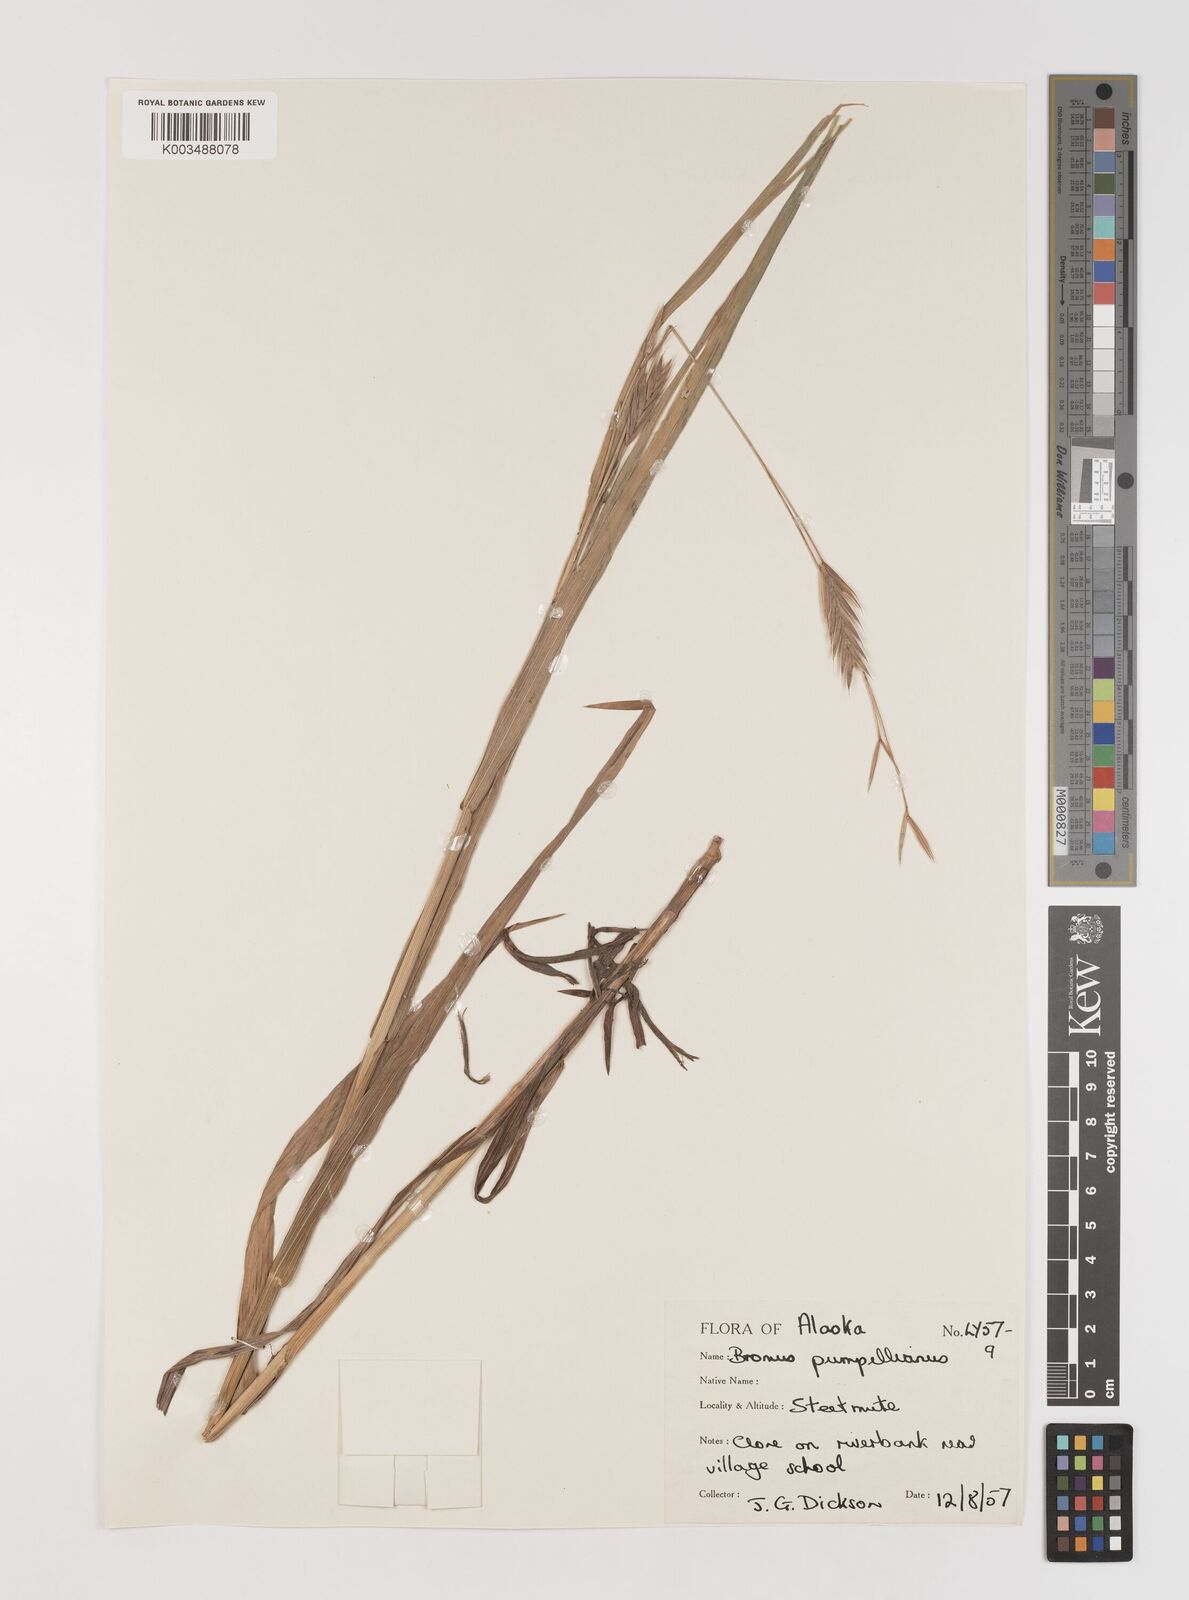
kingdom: Plantae
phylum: Tracheophyta
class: Liliopsida
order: Poales
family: Poaceae
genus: Bromus
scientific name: Bromus pumpellianus
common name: Pumpelly's brome
